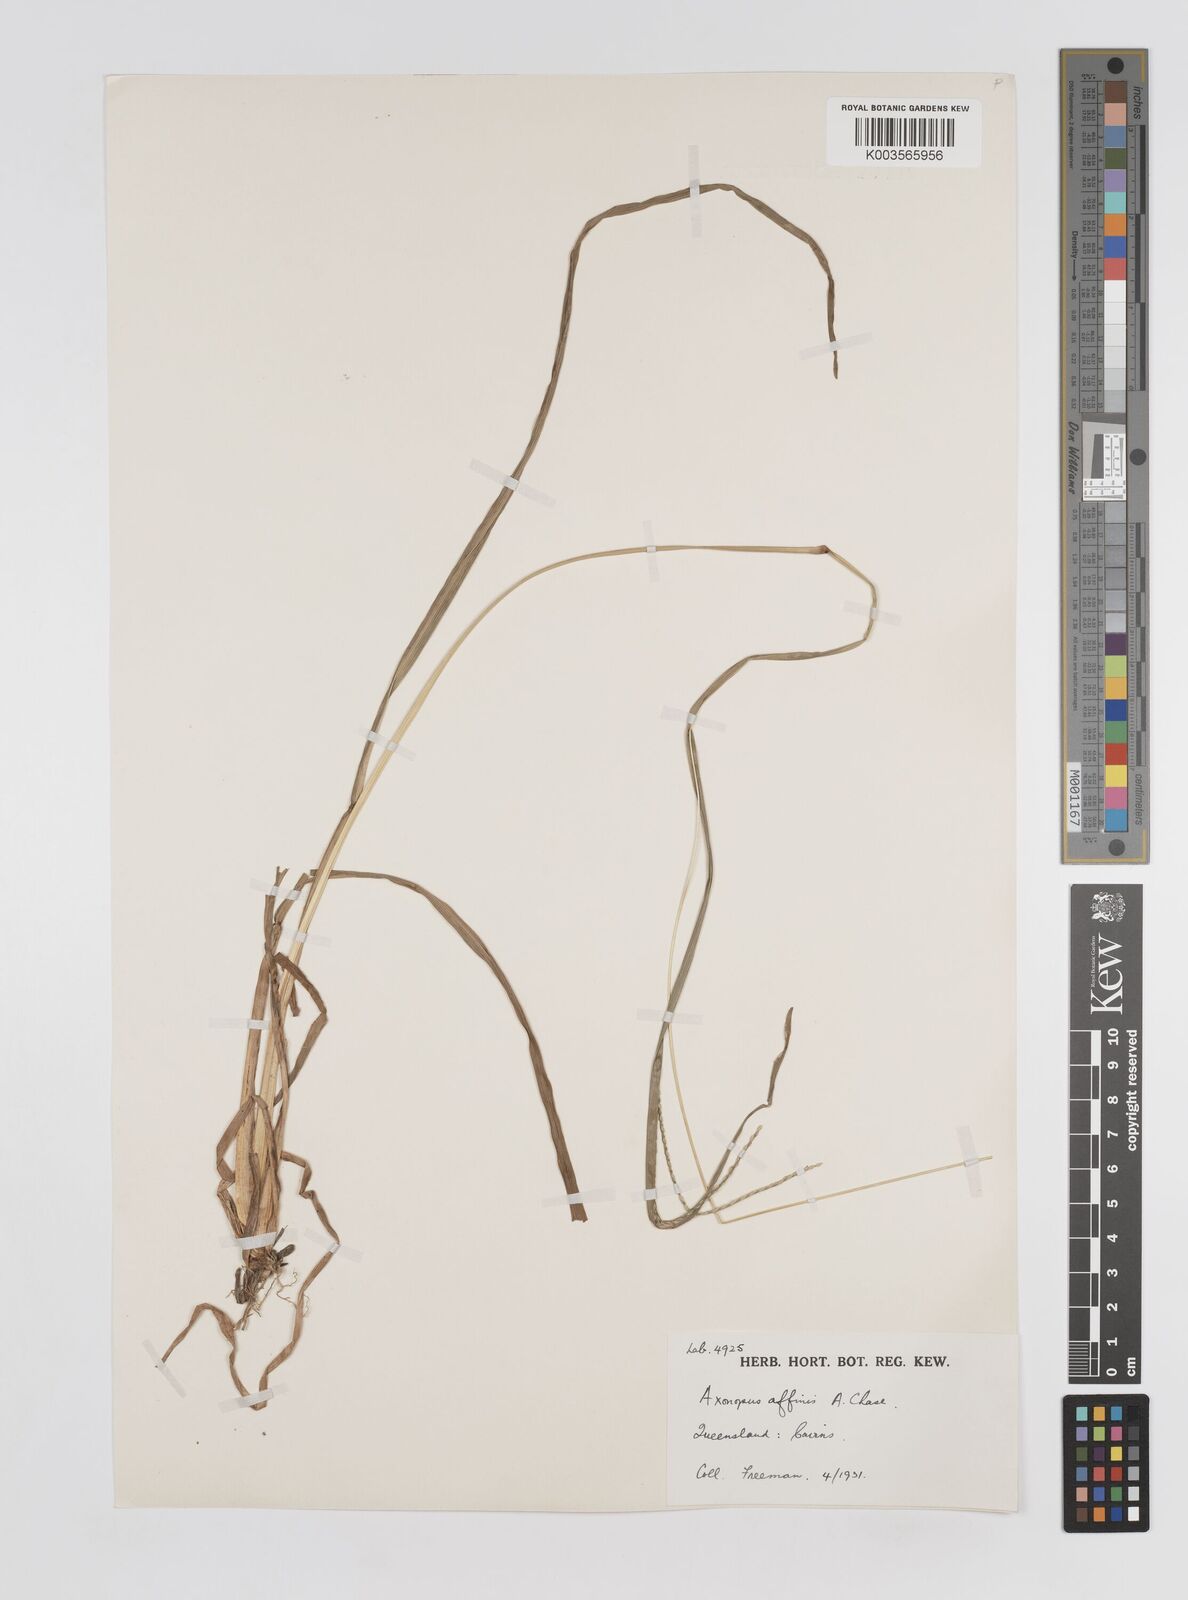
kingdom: Plantae
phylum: Tracheophyta
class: Liliopsida
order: Poales
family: Poaceae
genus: Axonopus
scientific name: Axonopus fissifolius
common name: Common carpetgrass
